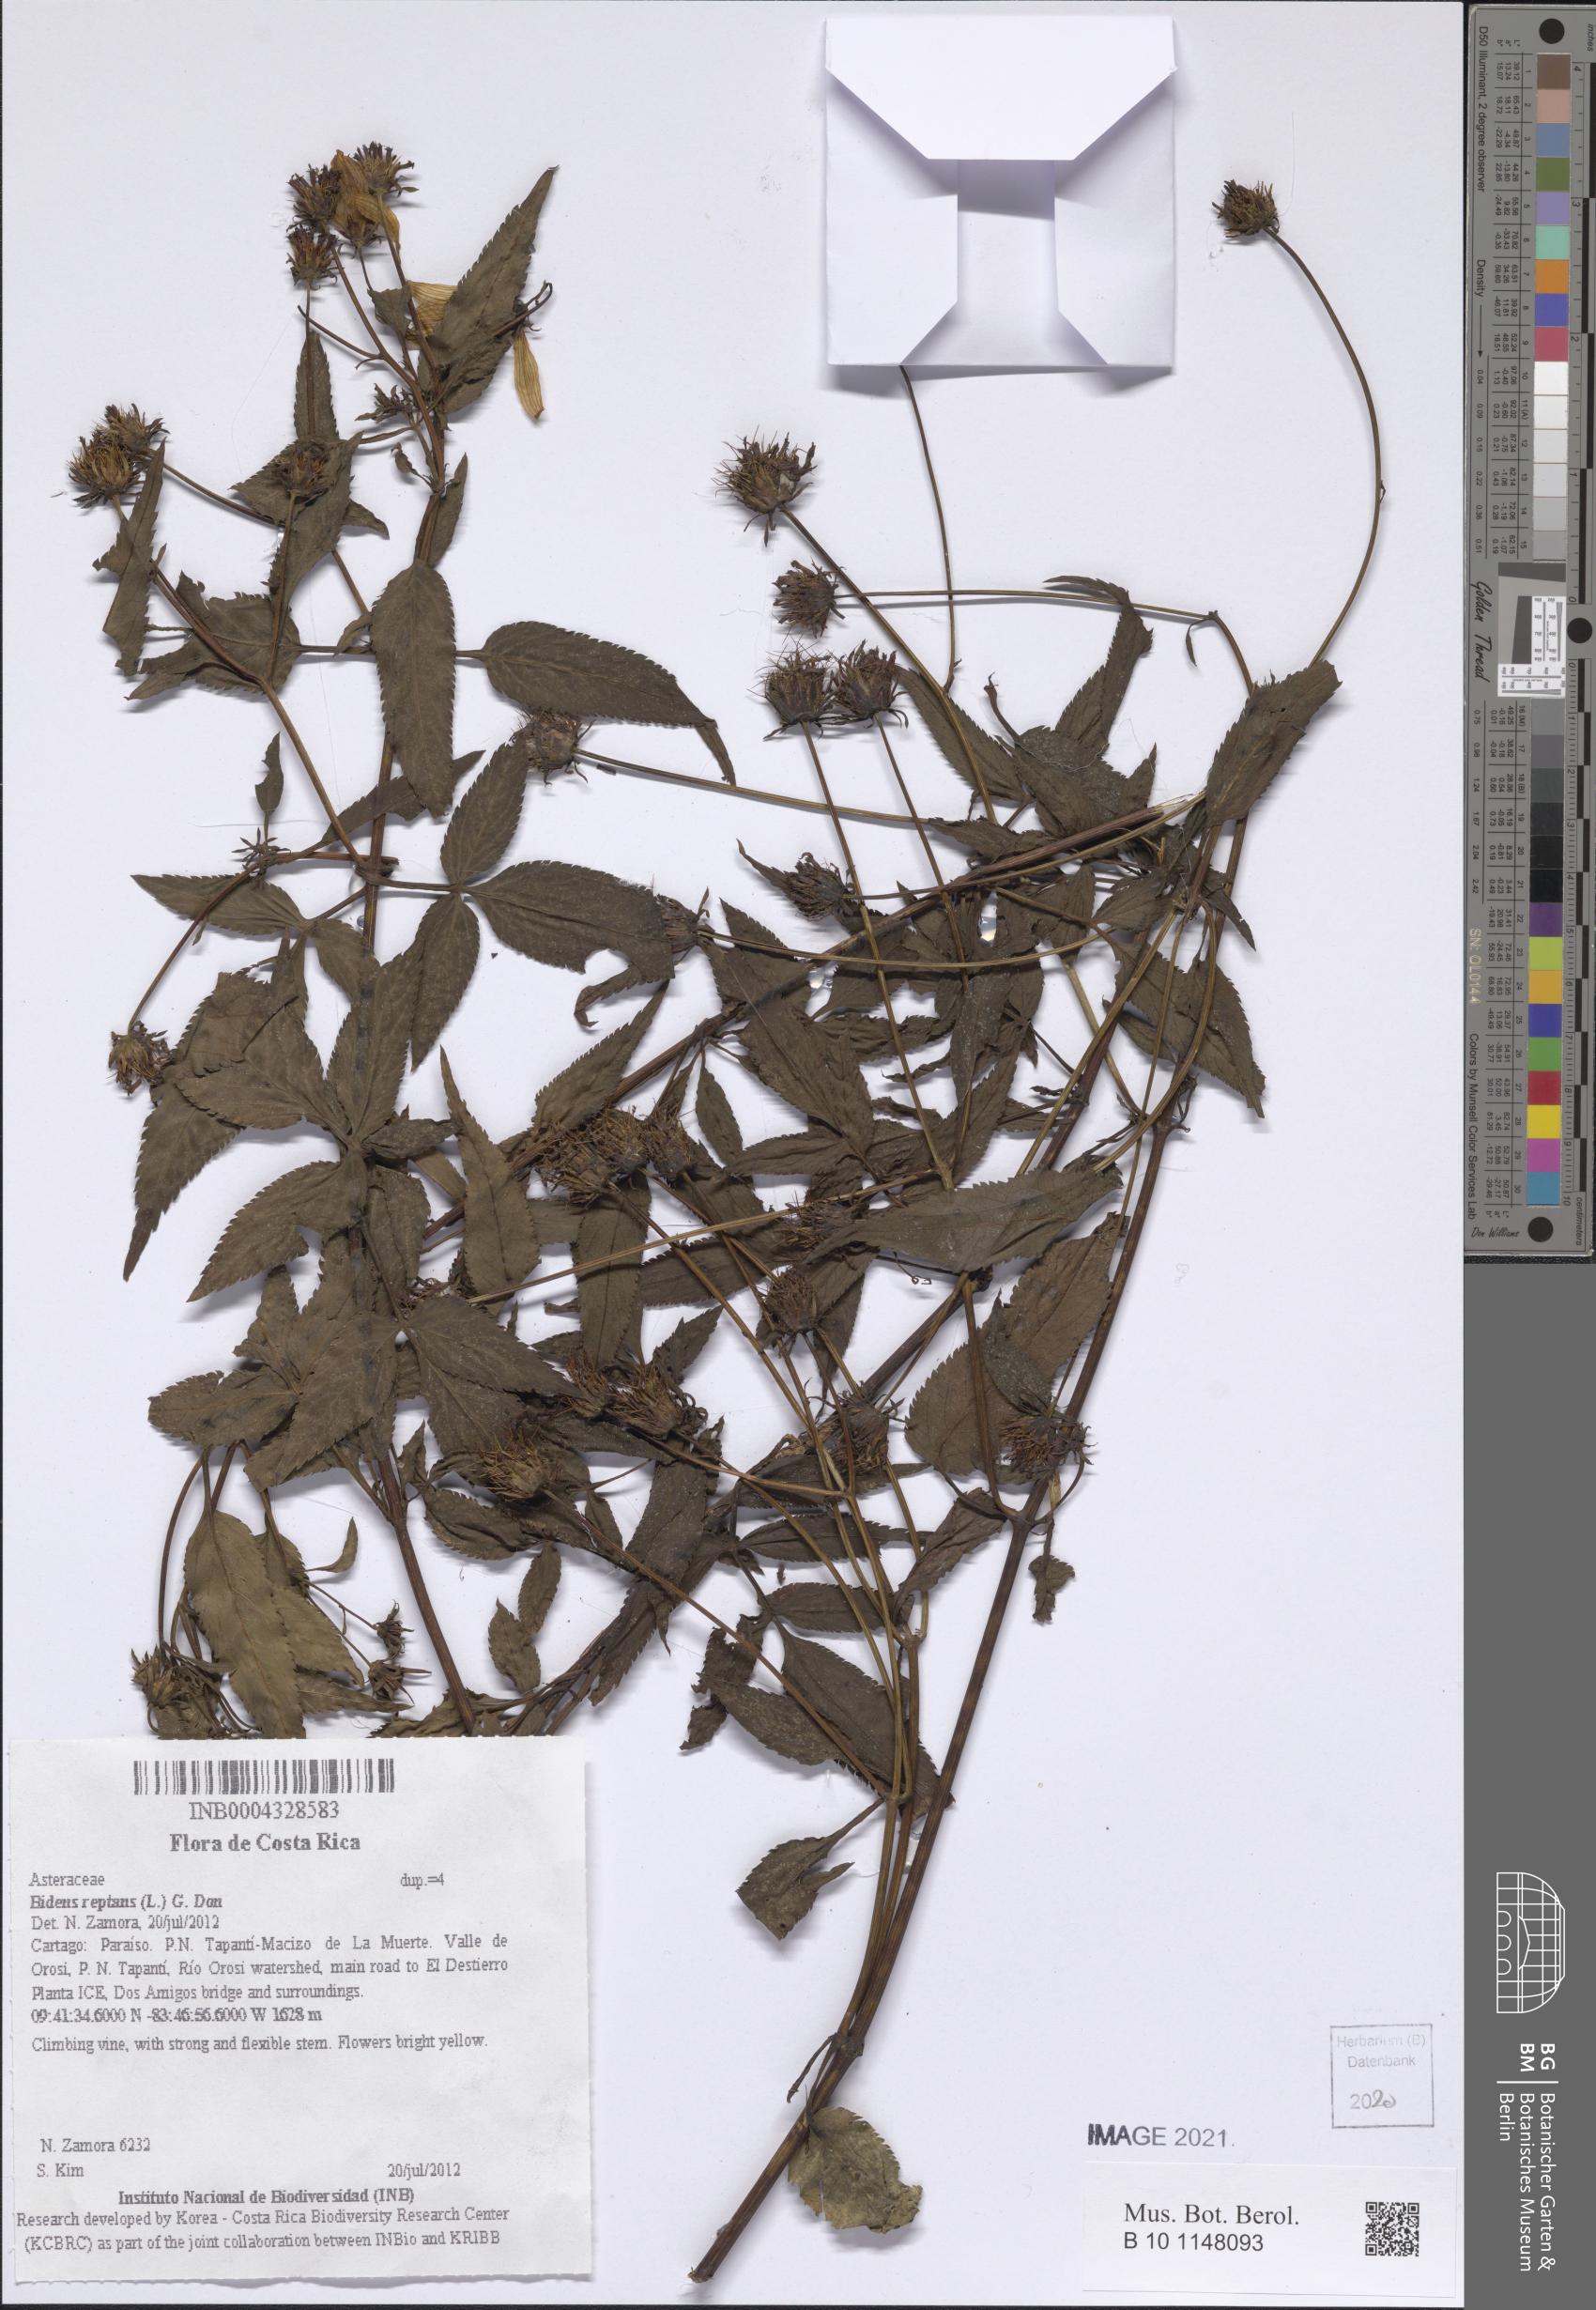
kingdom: Plantae
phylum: Tracheophyta
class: Magnoliopsida
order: Asterales
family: Asteraceae
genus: Bidens
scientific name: Bidens reptans
